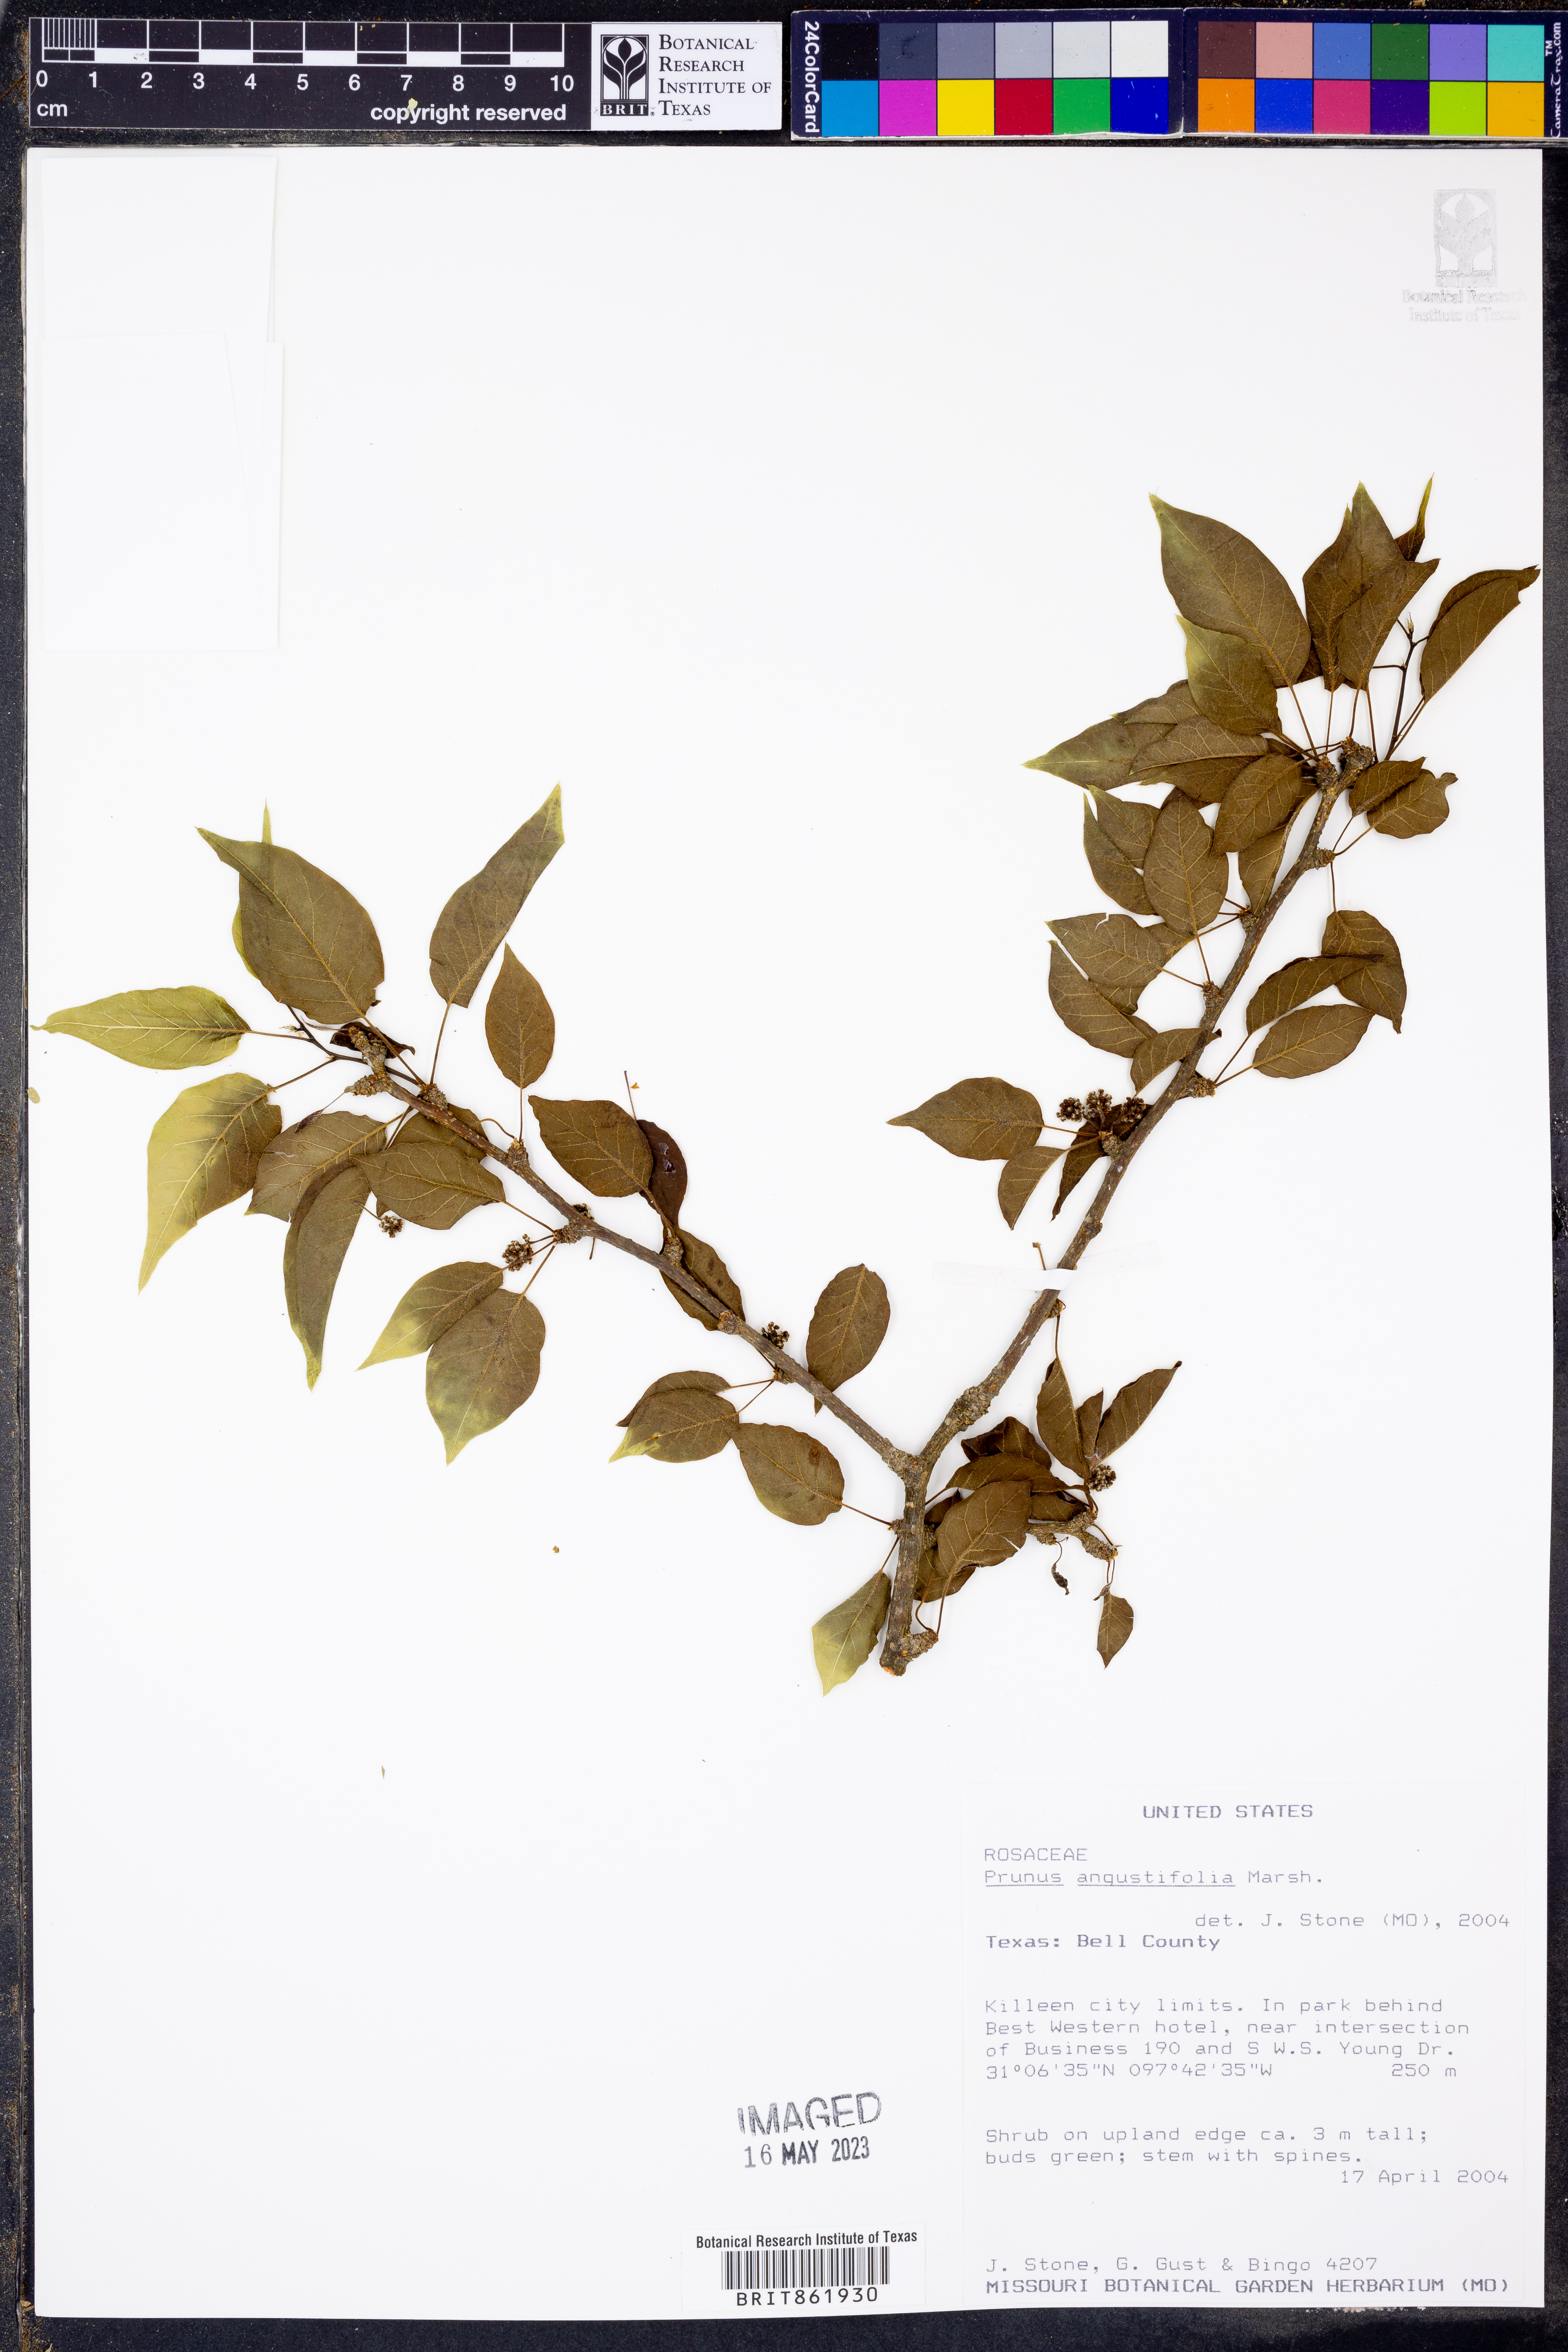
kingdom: Plantae
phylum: Tracheophyta
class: Magnoliopsida
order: Rosales
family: Rosaceae
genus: Prunus
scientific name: Prunus angustifolia
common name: Cherokee plum
